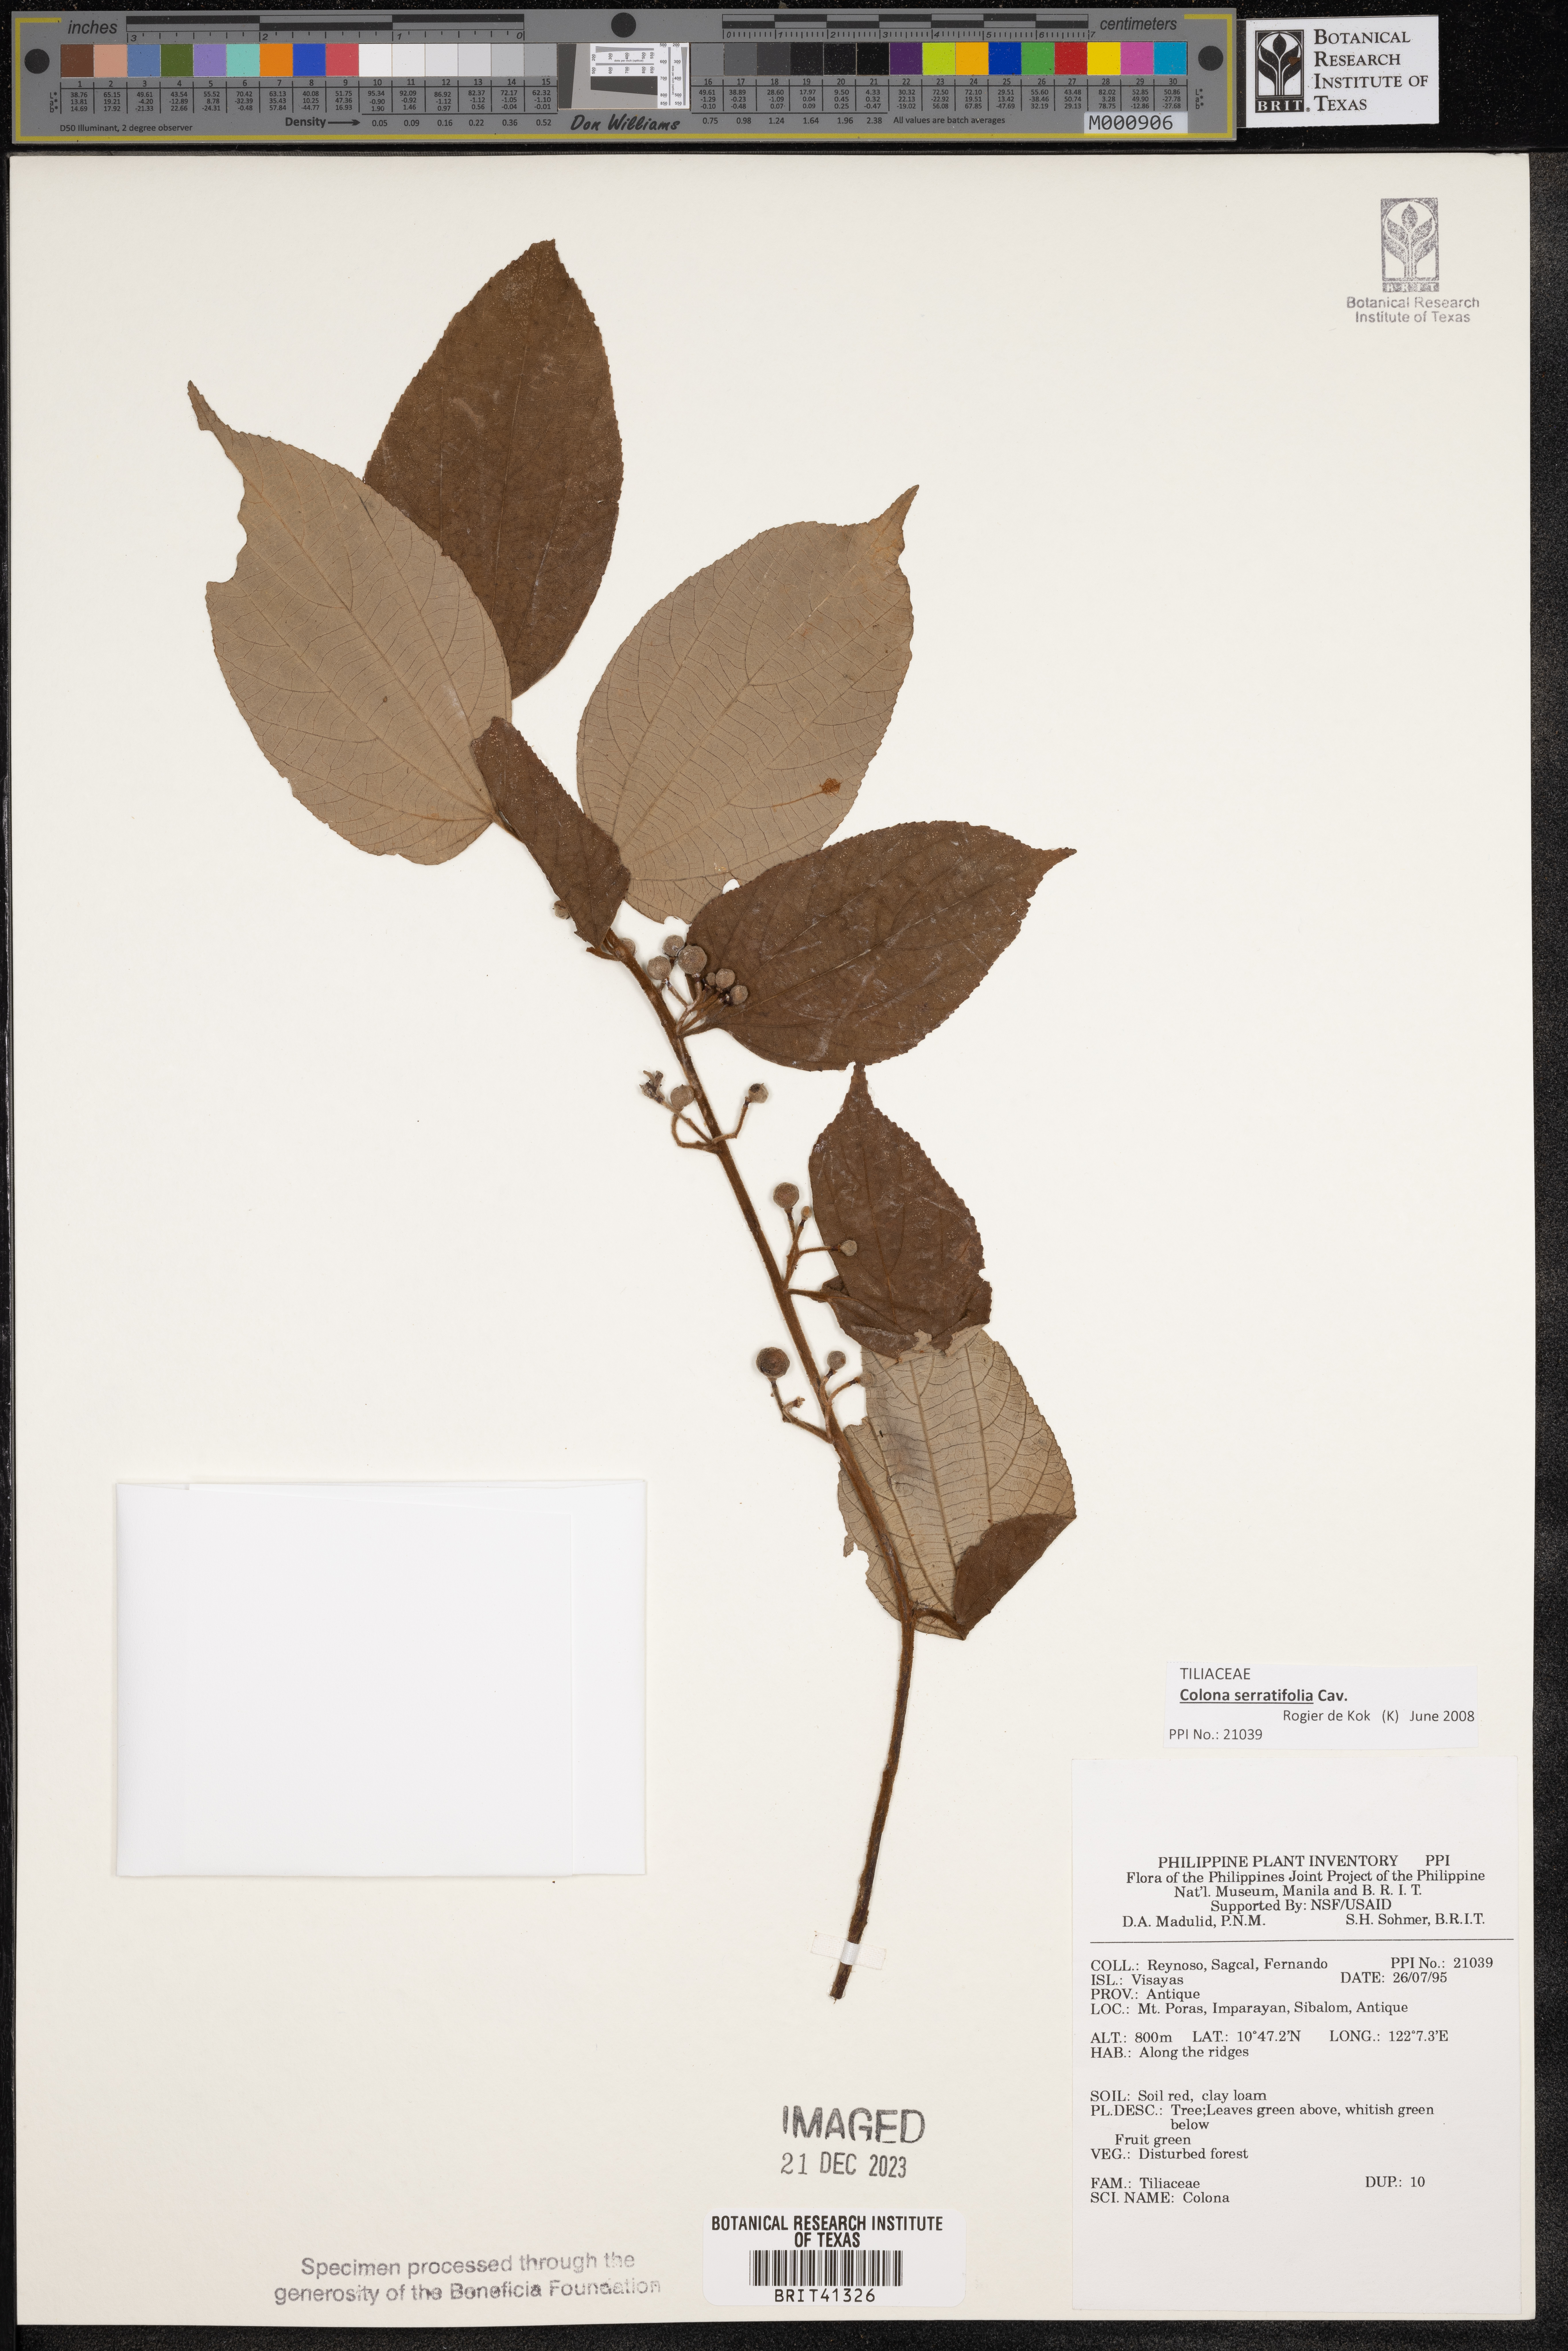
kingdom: Plantae
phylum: Tracheophyta
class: Magnoliopsida
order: Malvales
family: Malvaceae
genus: Colona
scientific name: Colona
